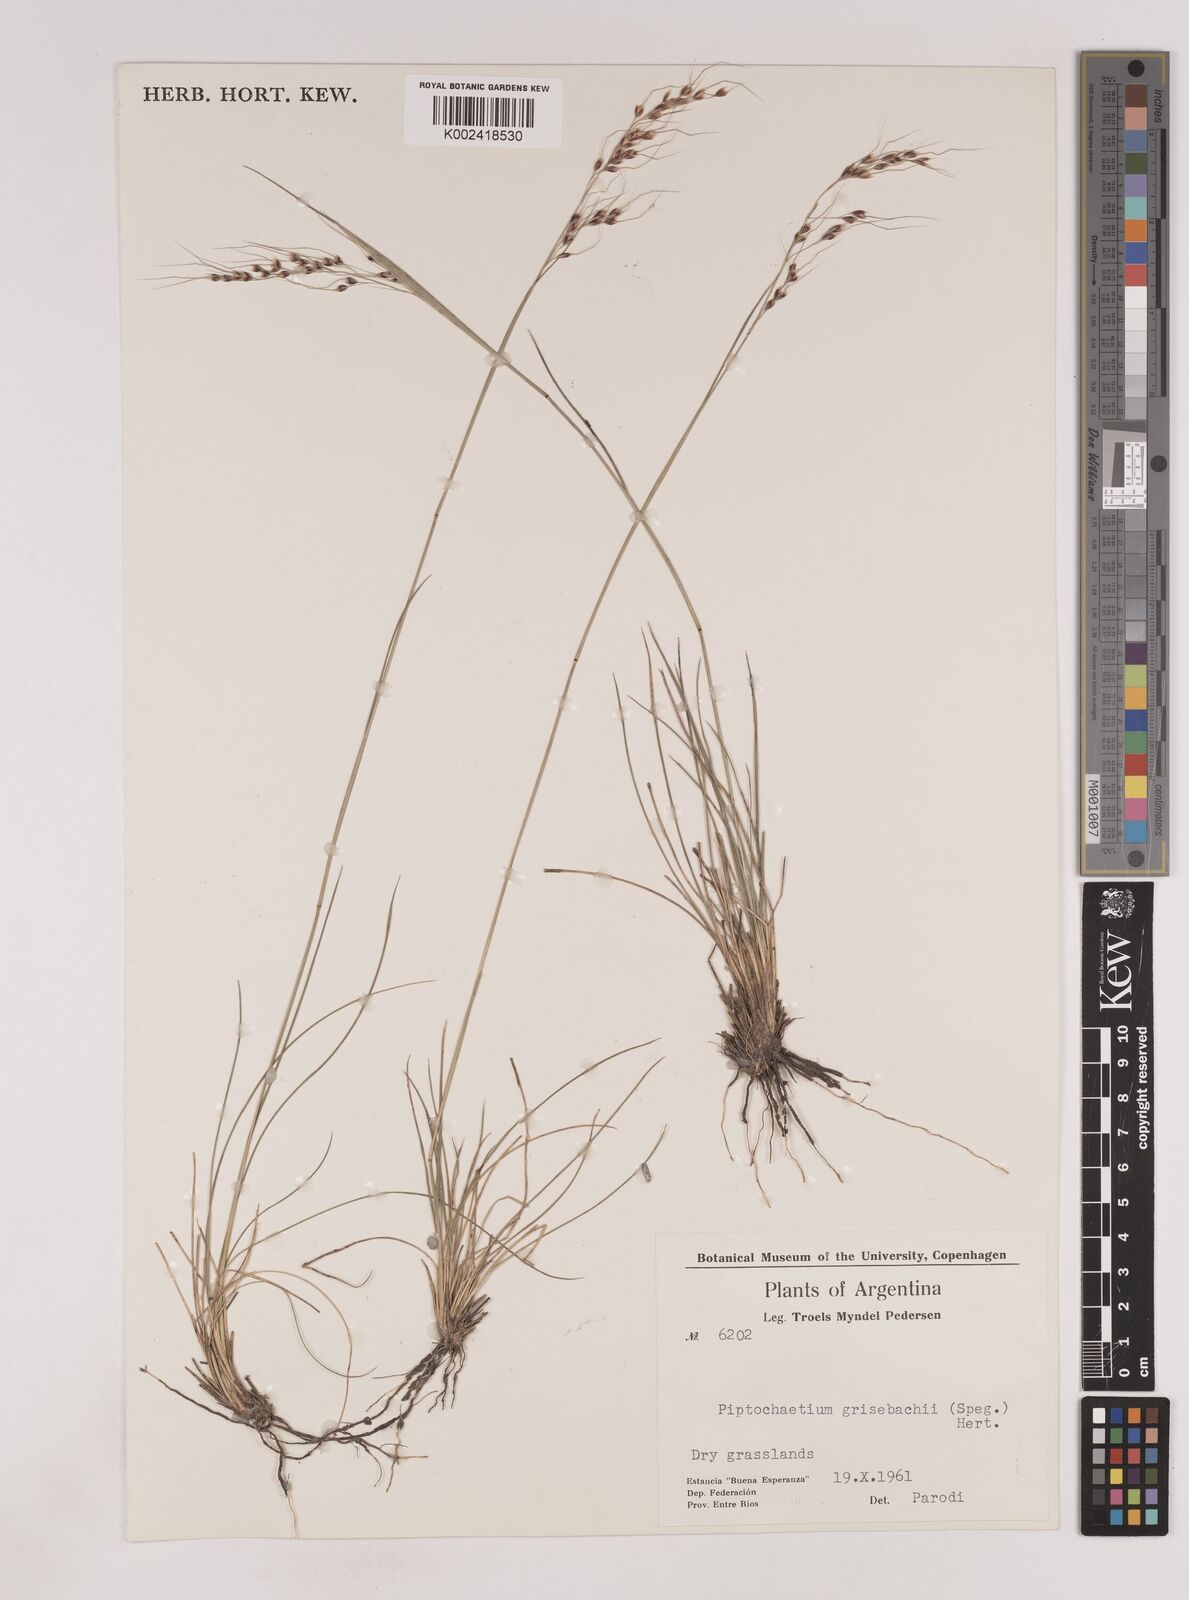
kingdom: Plantae
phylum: Tracheophyta
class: Liliopsida
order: Poales
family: Poaceae
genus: Piptochaetium
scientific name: Piptochaetium stipoides
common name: Purple speargrass
